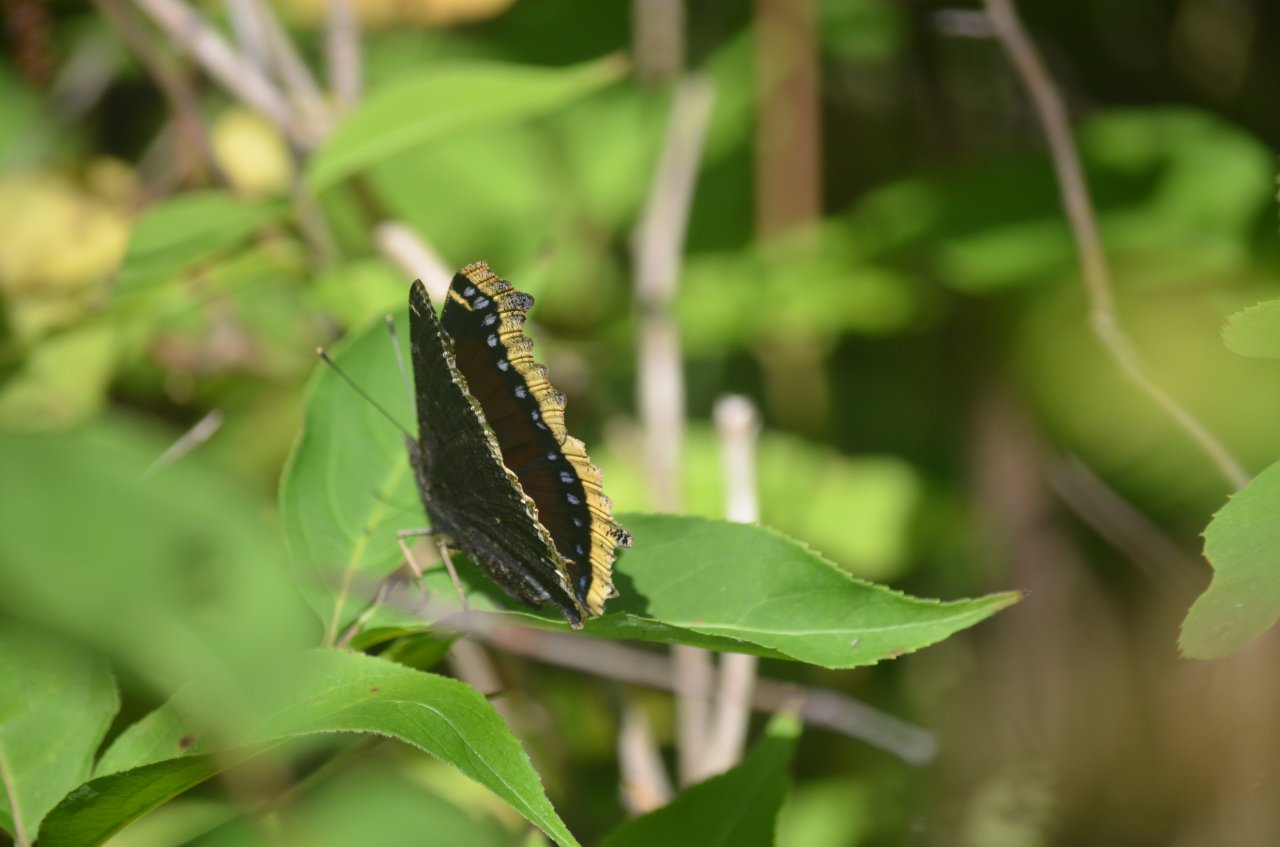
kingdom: Animalia
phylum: Arthropoda
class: Insecta
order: Lepidoptera
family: Nymphalidae
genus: Nymphalis
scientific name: Nymphalis antiopa
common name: Mourning Cloak
